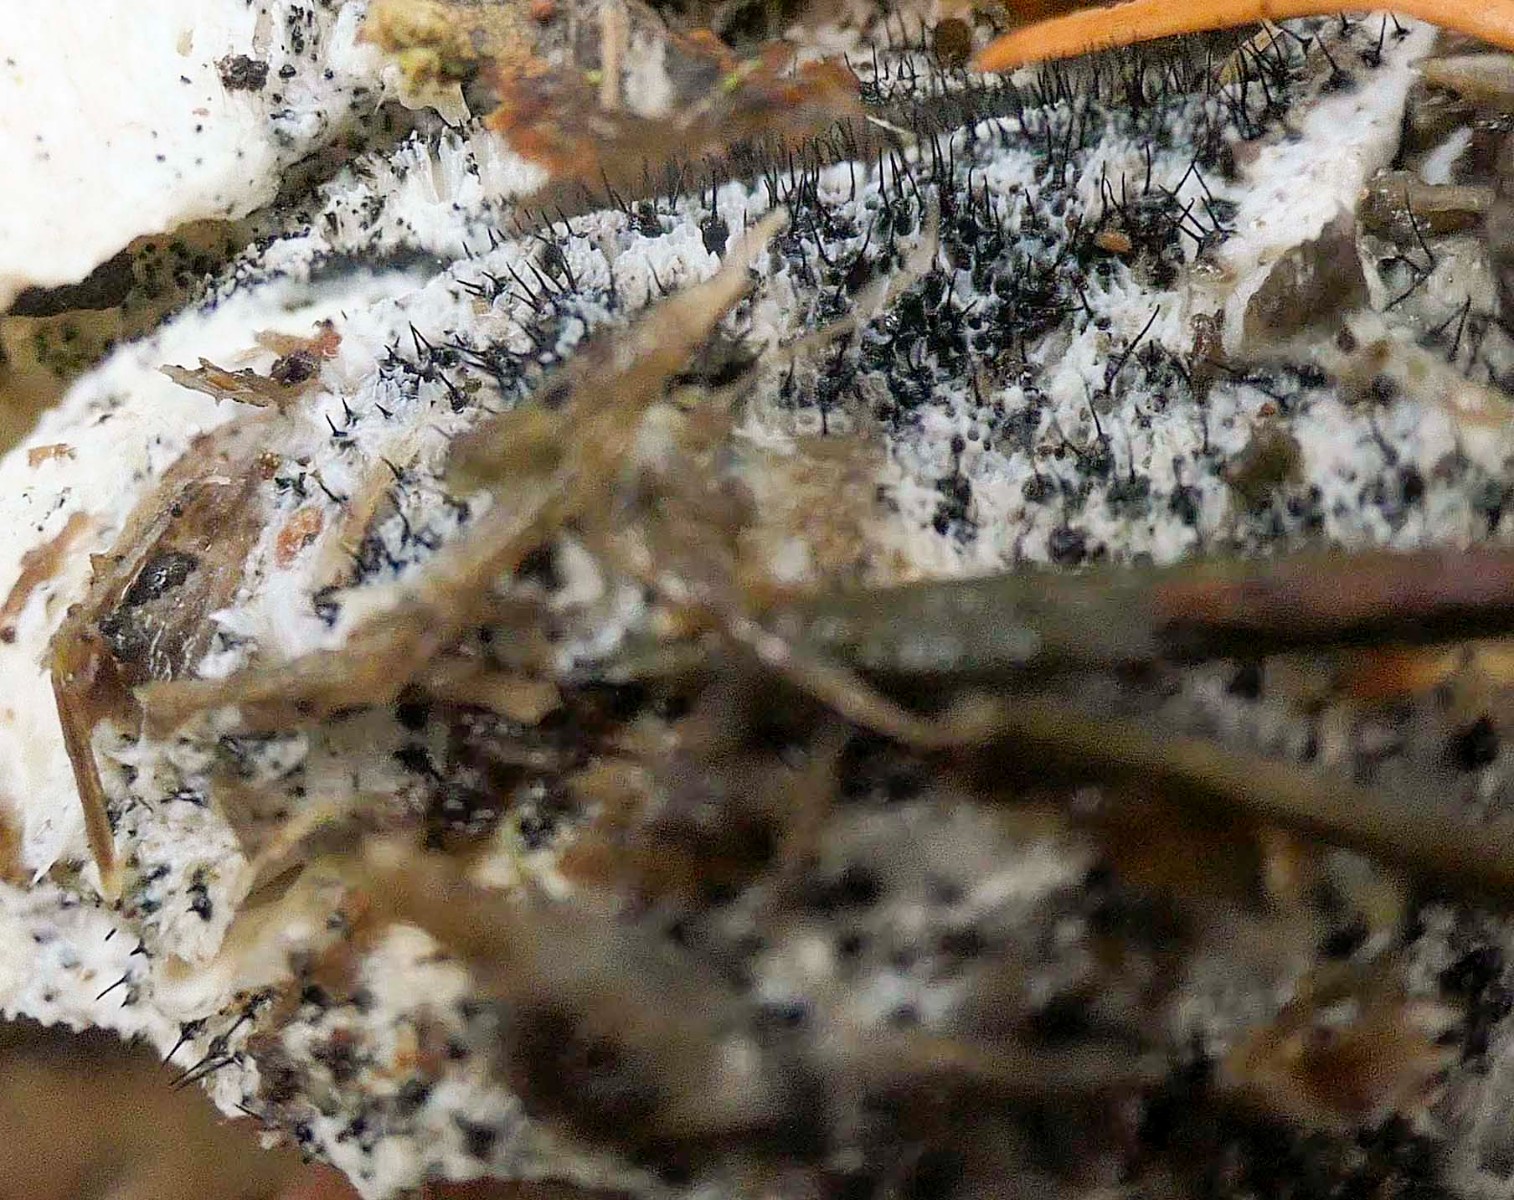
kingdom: Fungi
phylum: Ascomycota
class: Sordariomycetes
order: Ophiostomatales
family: Ophiostomataceae
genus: Sporothrix
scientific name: Sporothrix polyporicola
